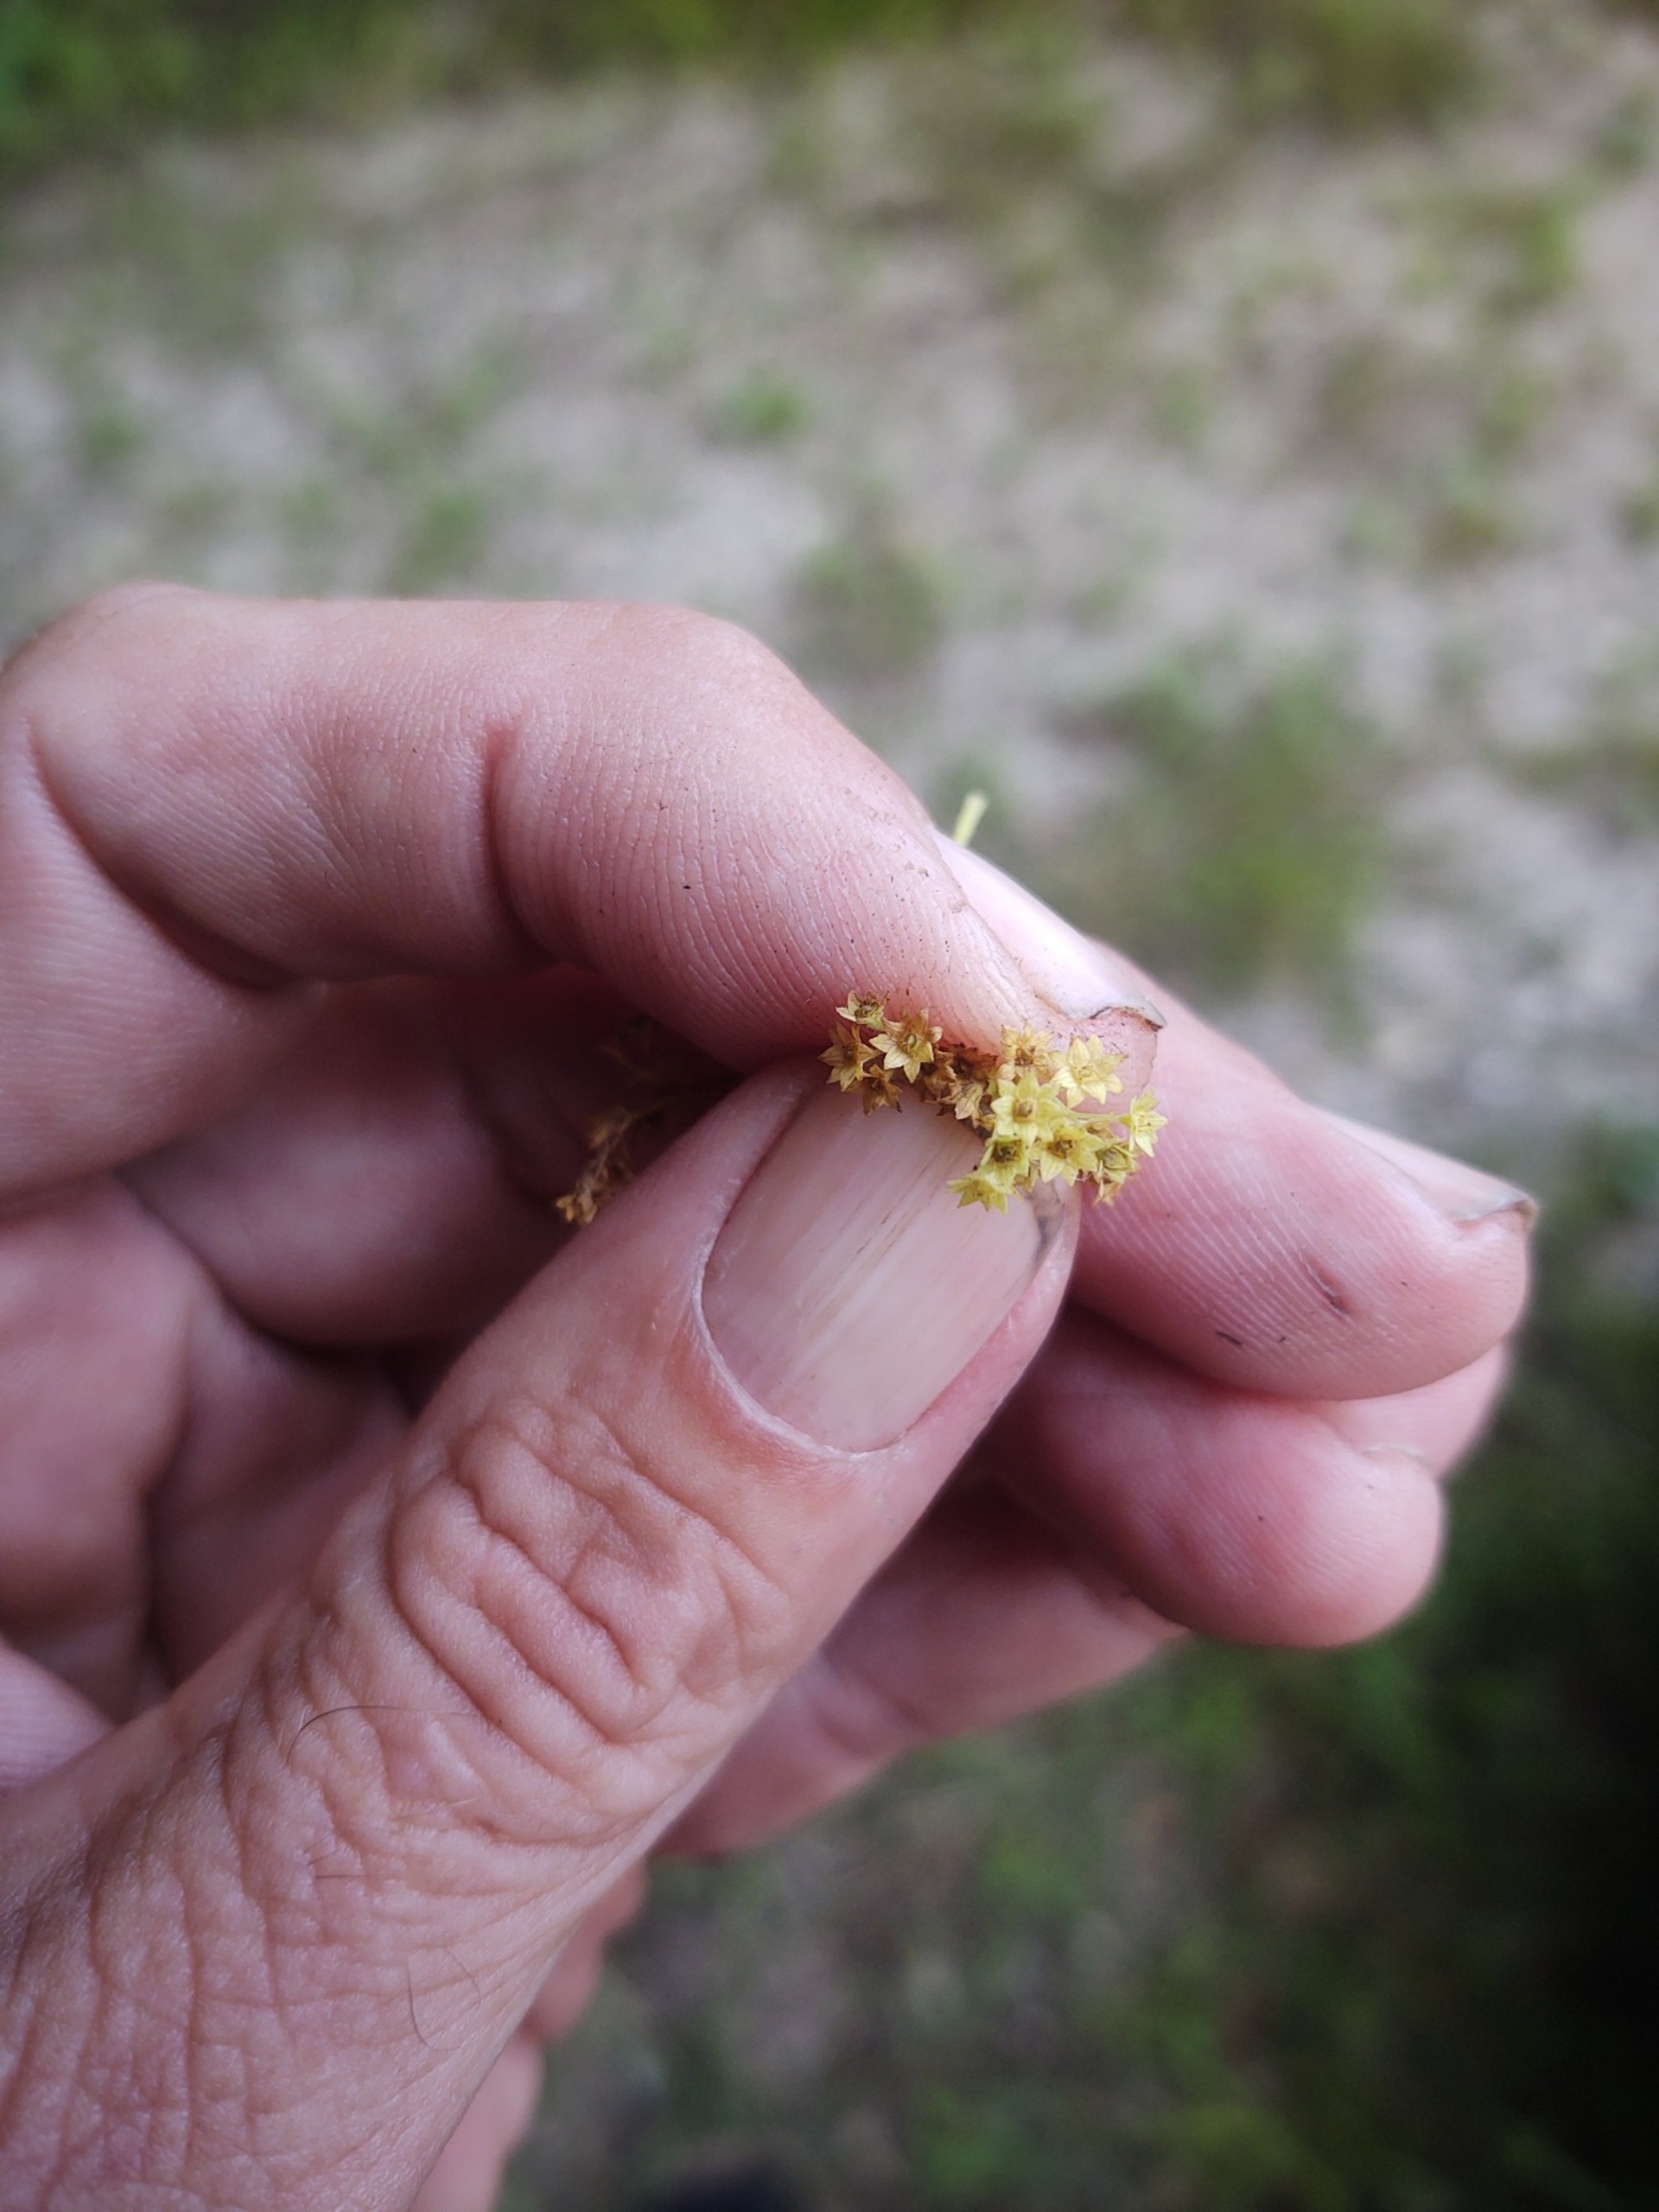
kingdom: Plantae
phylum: Tracheophyta
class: Magnoliopsida
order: Rosales
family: Rosaceae
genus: Alchemilla
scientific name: Alchemilla mollis
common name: Lådden løvefod
